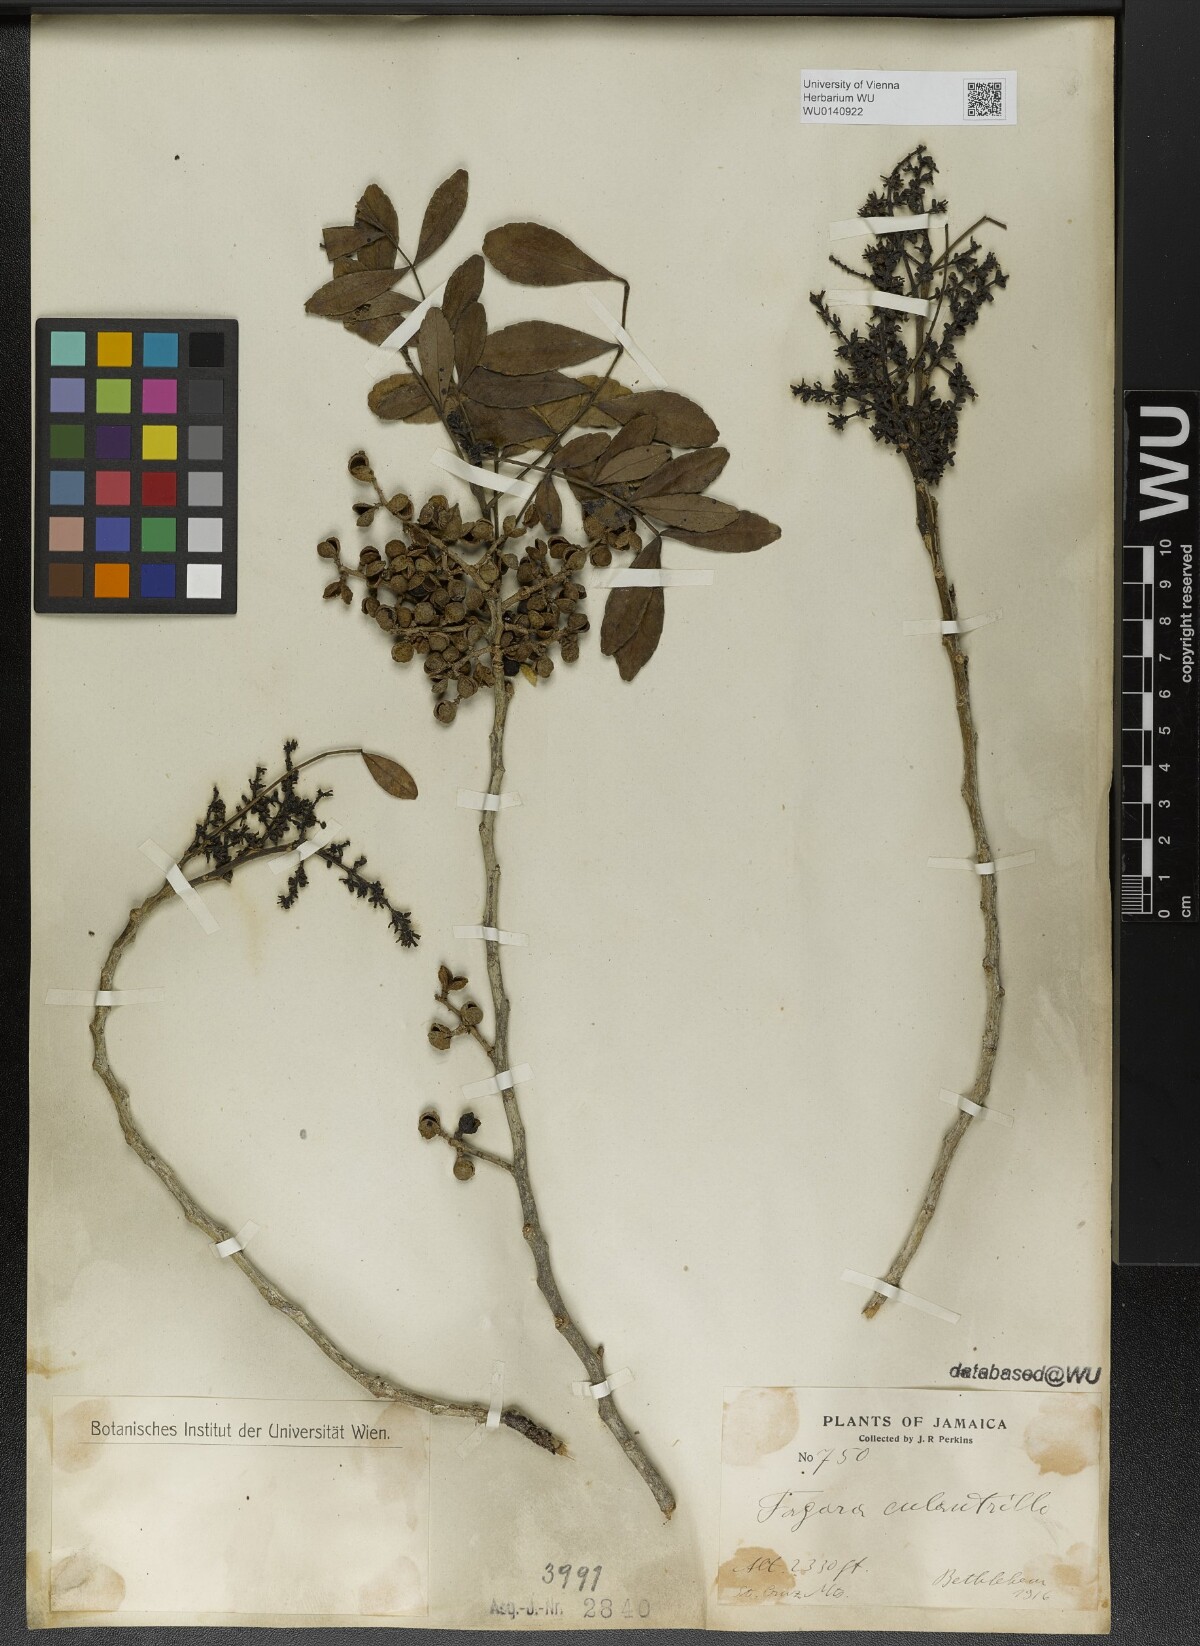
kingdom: Plantae
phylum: Tracheophyta
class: Magnoliopsida
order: Sapindales
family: Rutaceae
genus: Zanthoxylum
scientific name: Zanthoxylum fagara
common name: Lime prickly-ash
